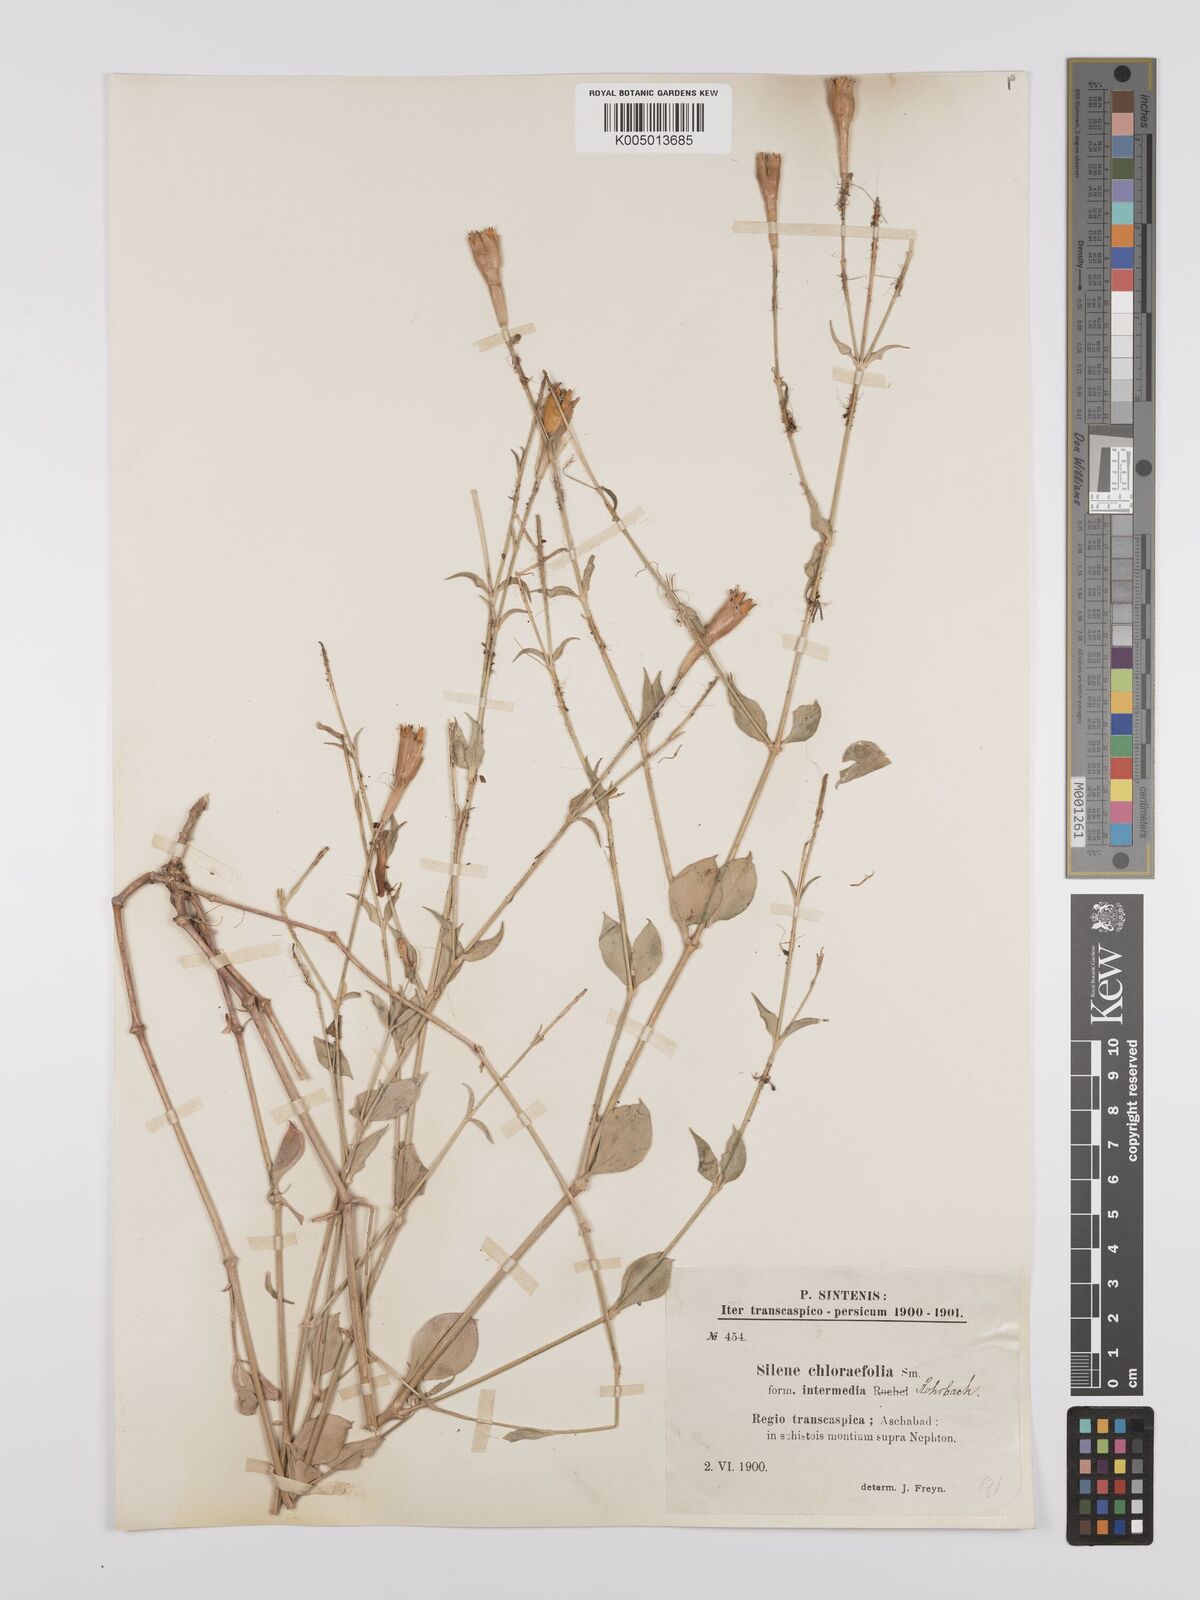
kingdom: Plantae
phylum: Tracheophyta
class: Magnoliopsida
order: Caryophyllales
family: Caryophyllaceae
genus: Silene
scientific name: Silene chlorifolia
